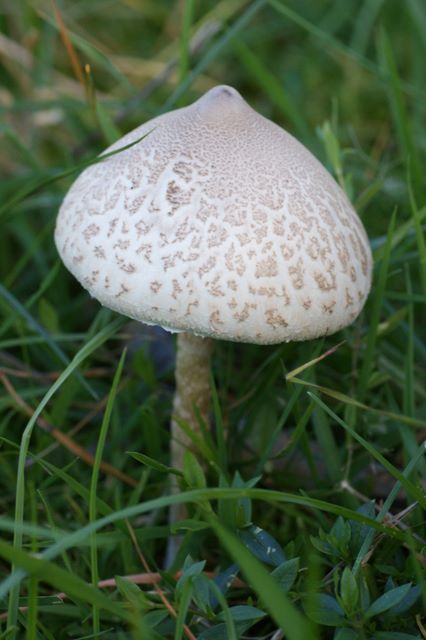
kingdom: Fungi
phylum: Basidiomycota
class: Agaricomycetes
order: Agaricales
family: Agaricaceae
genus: Macrolepiota
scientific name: Macrolepiota excoriata
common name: mark-kæmpeparasolhat
